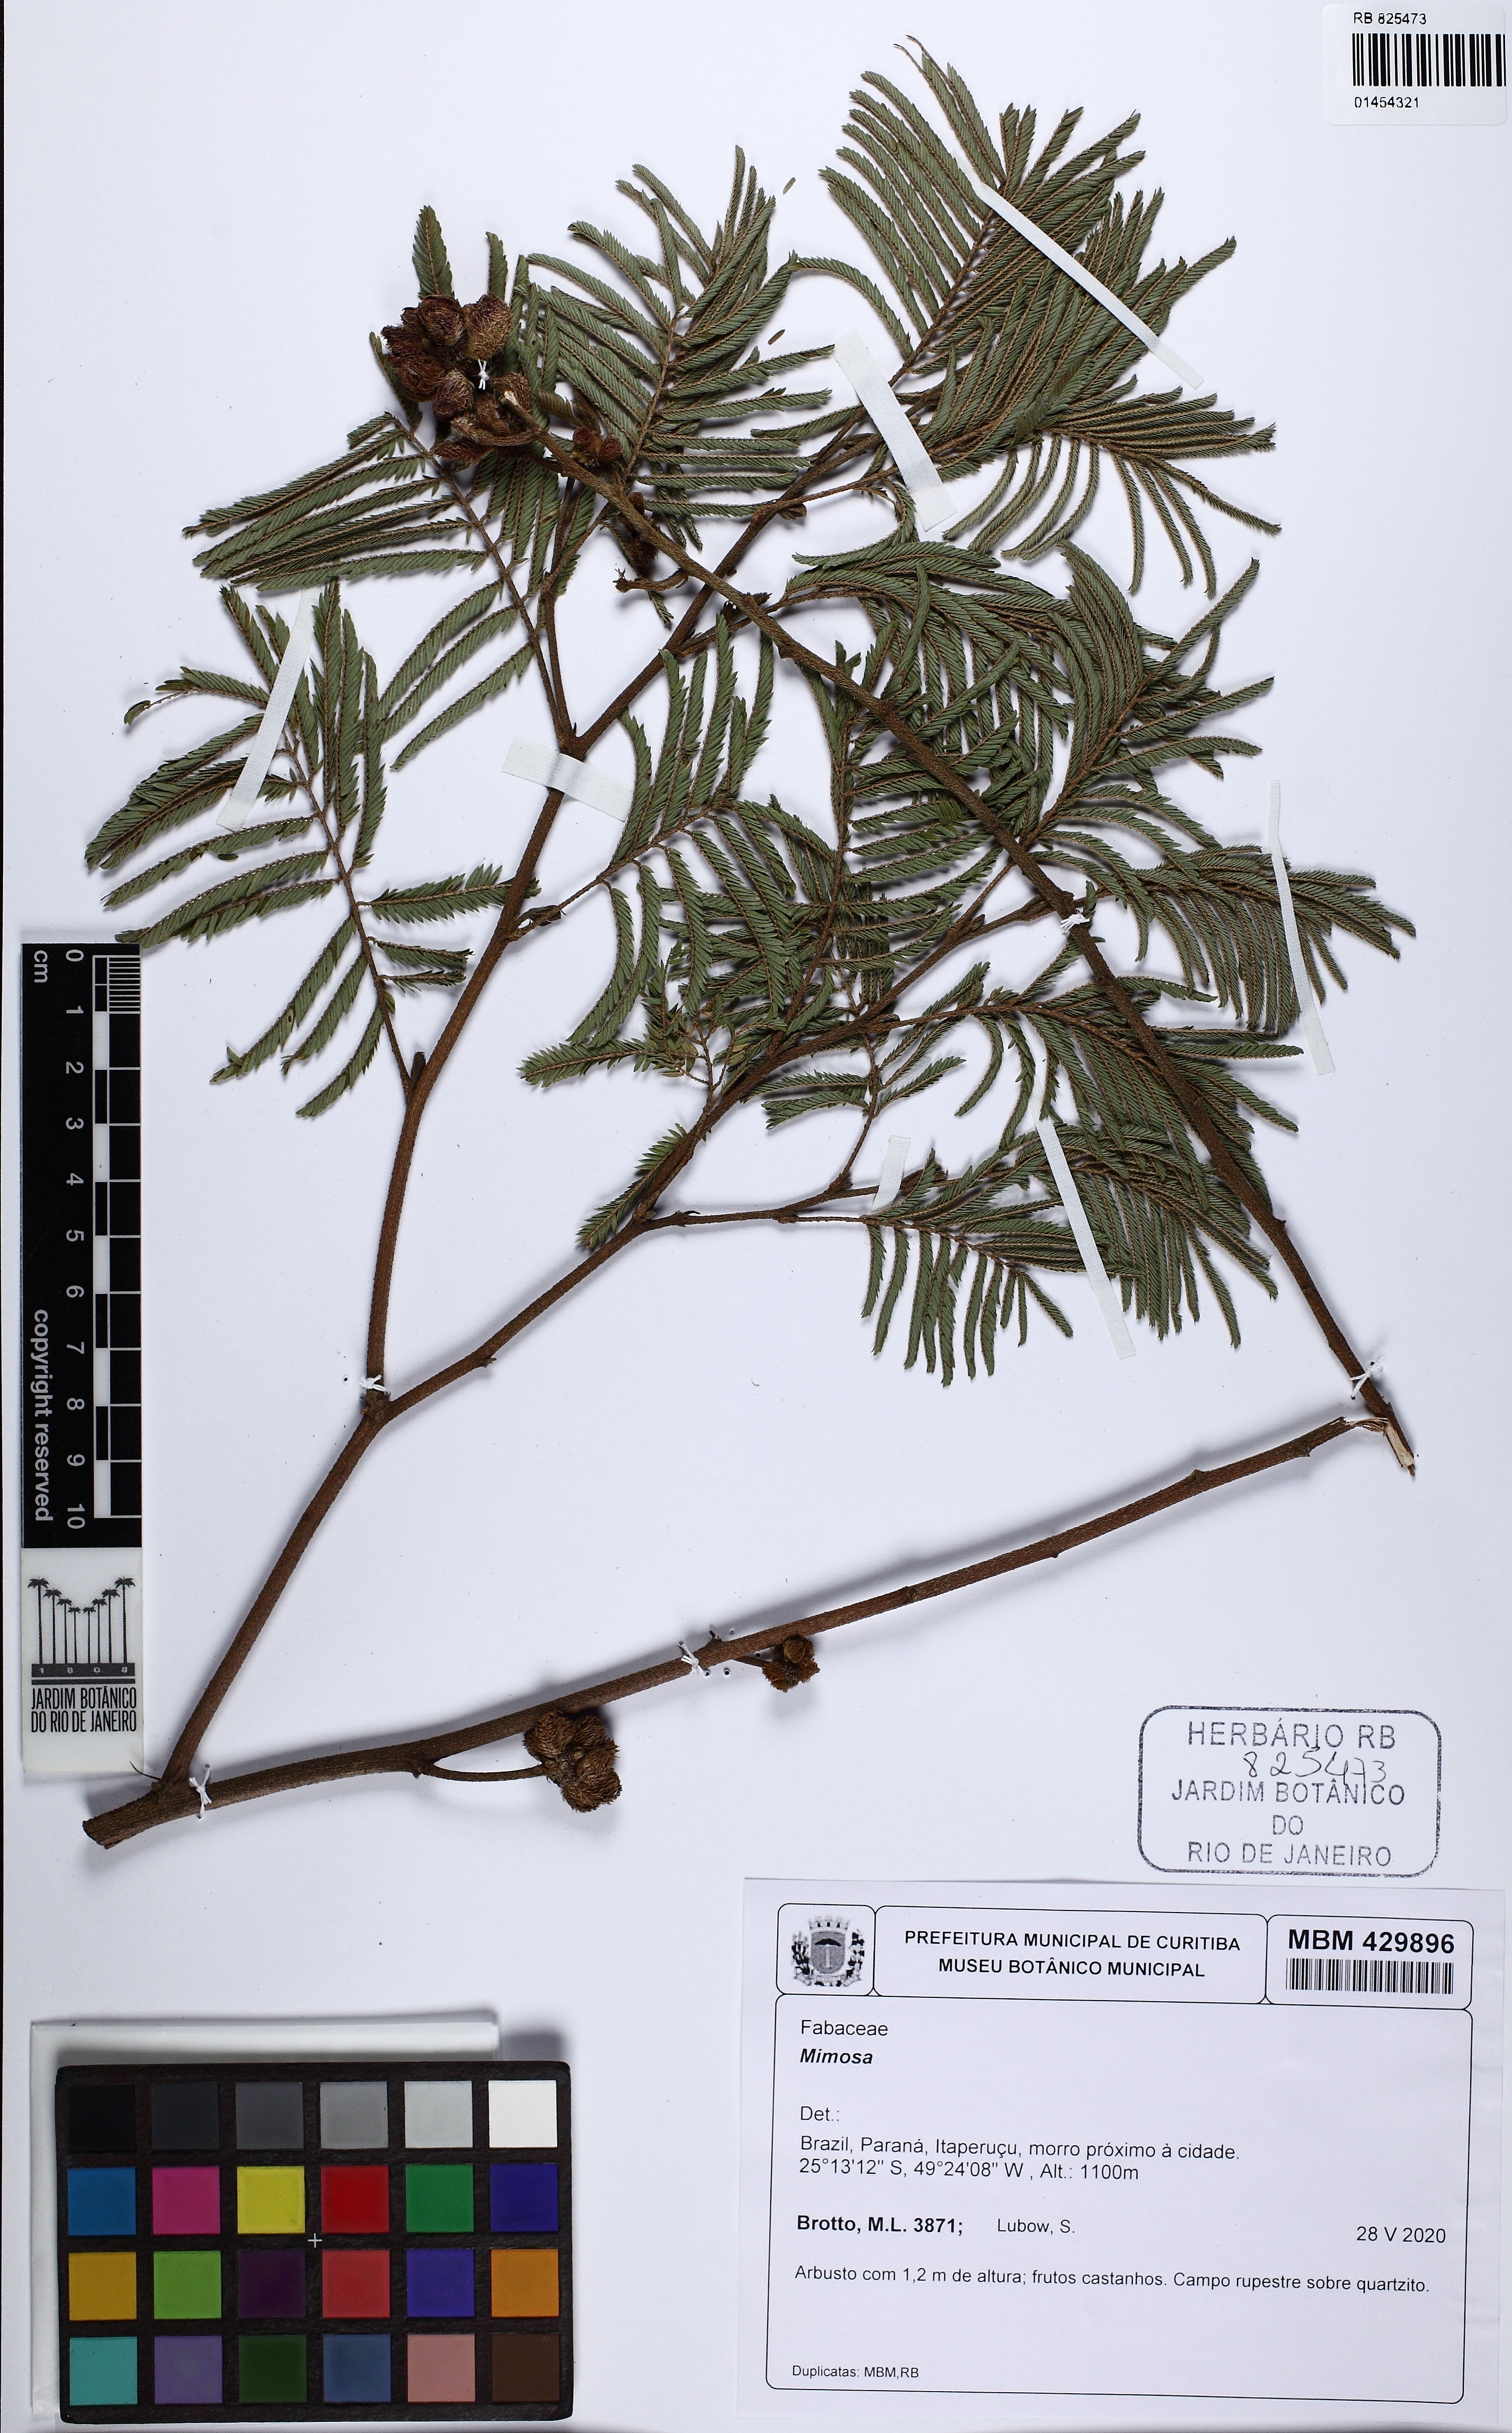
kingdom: Plantae
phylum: Tracheophyta
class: Magnoliopsida
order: Fabales
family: Fabaceae
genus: Mimosa
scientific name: Mimosa
